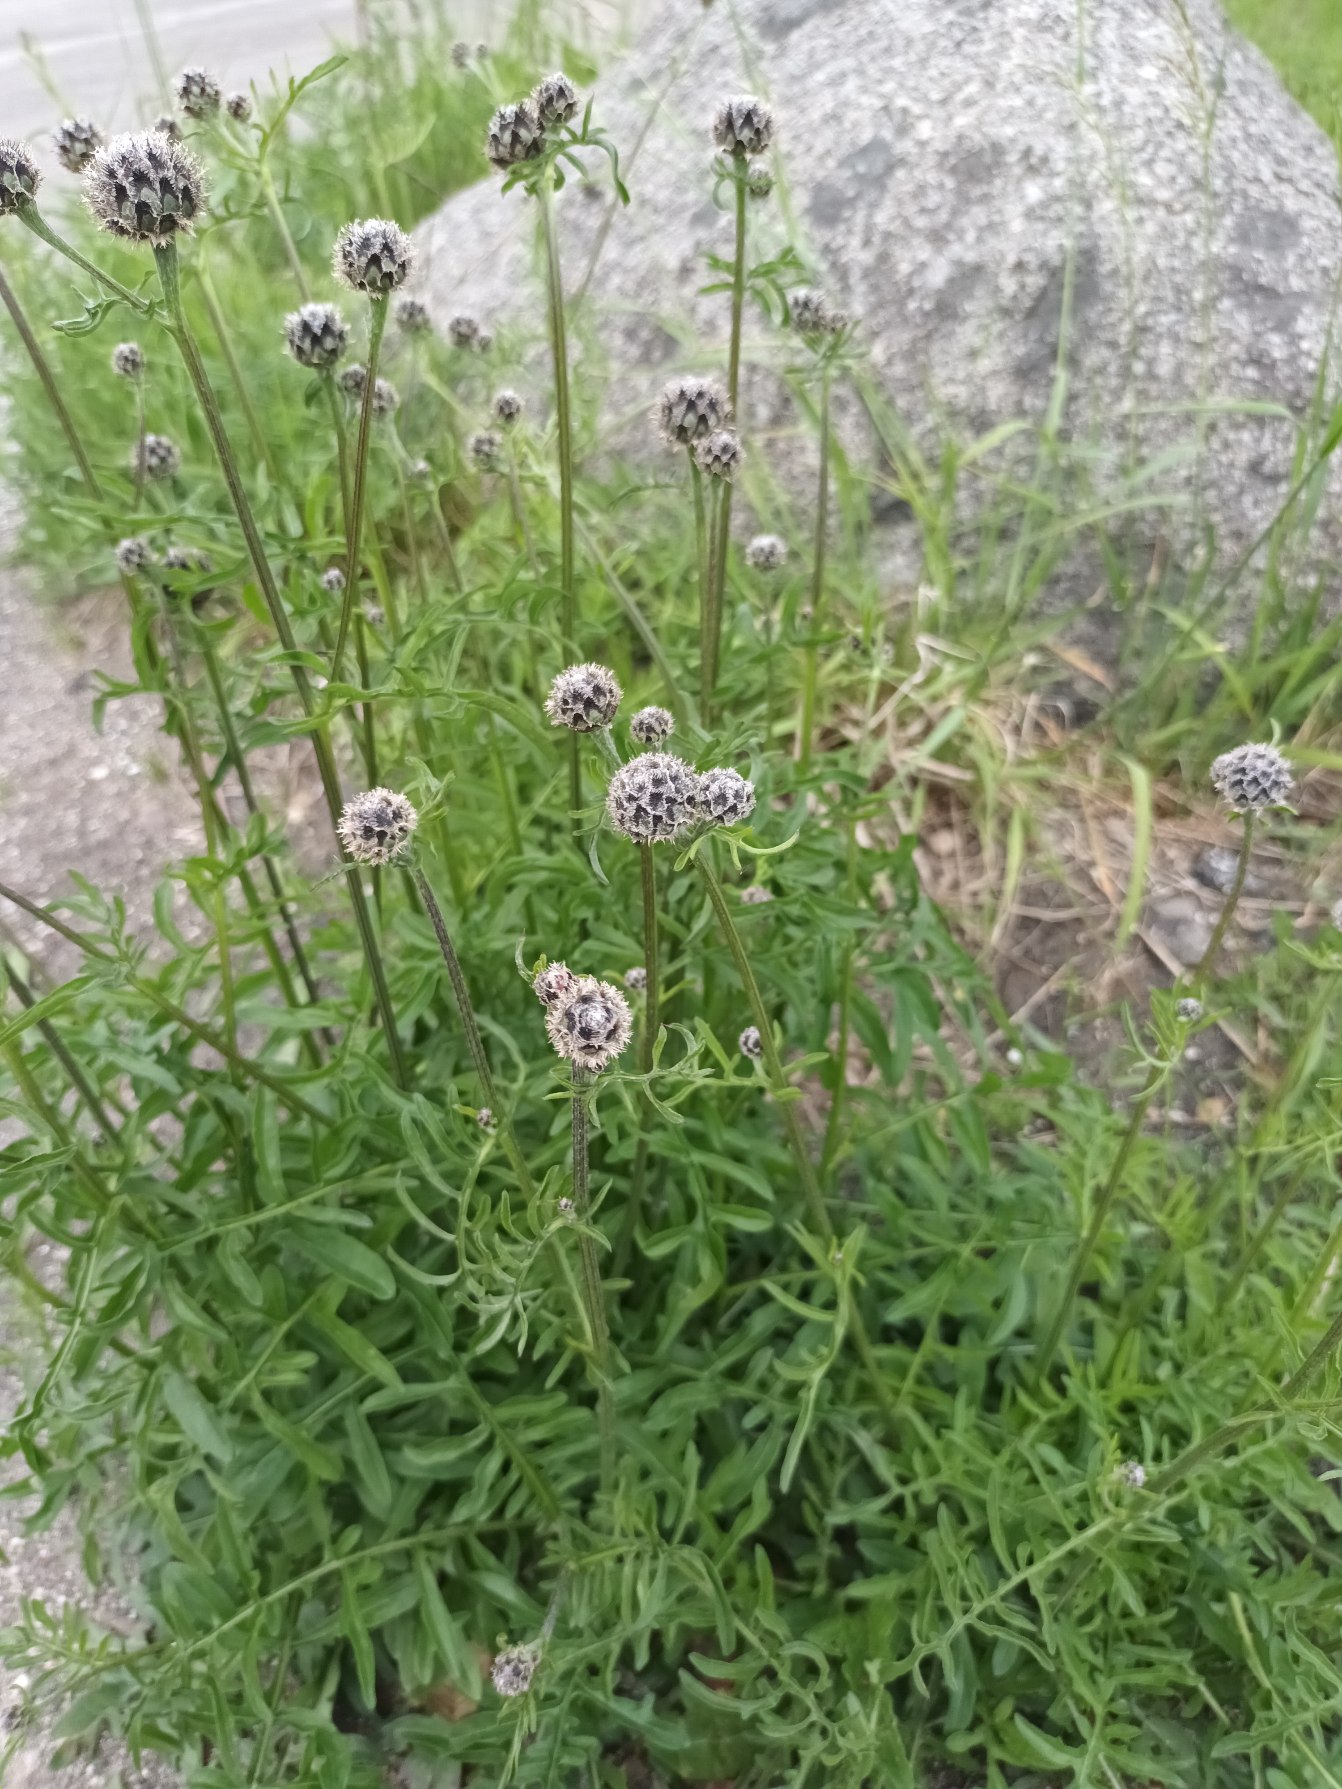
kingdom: Plantae
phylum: Tracheophyta
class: Magnoliopsida
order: Asterales
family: Asteraceae
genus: Centaurea
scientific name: Centaurea scabiosa
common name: Stor knopurt
